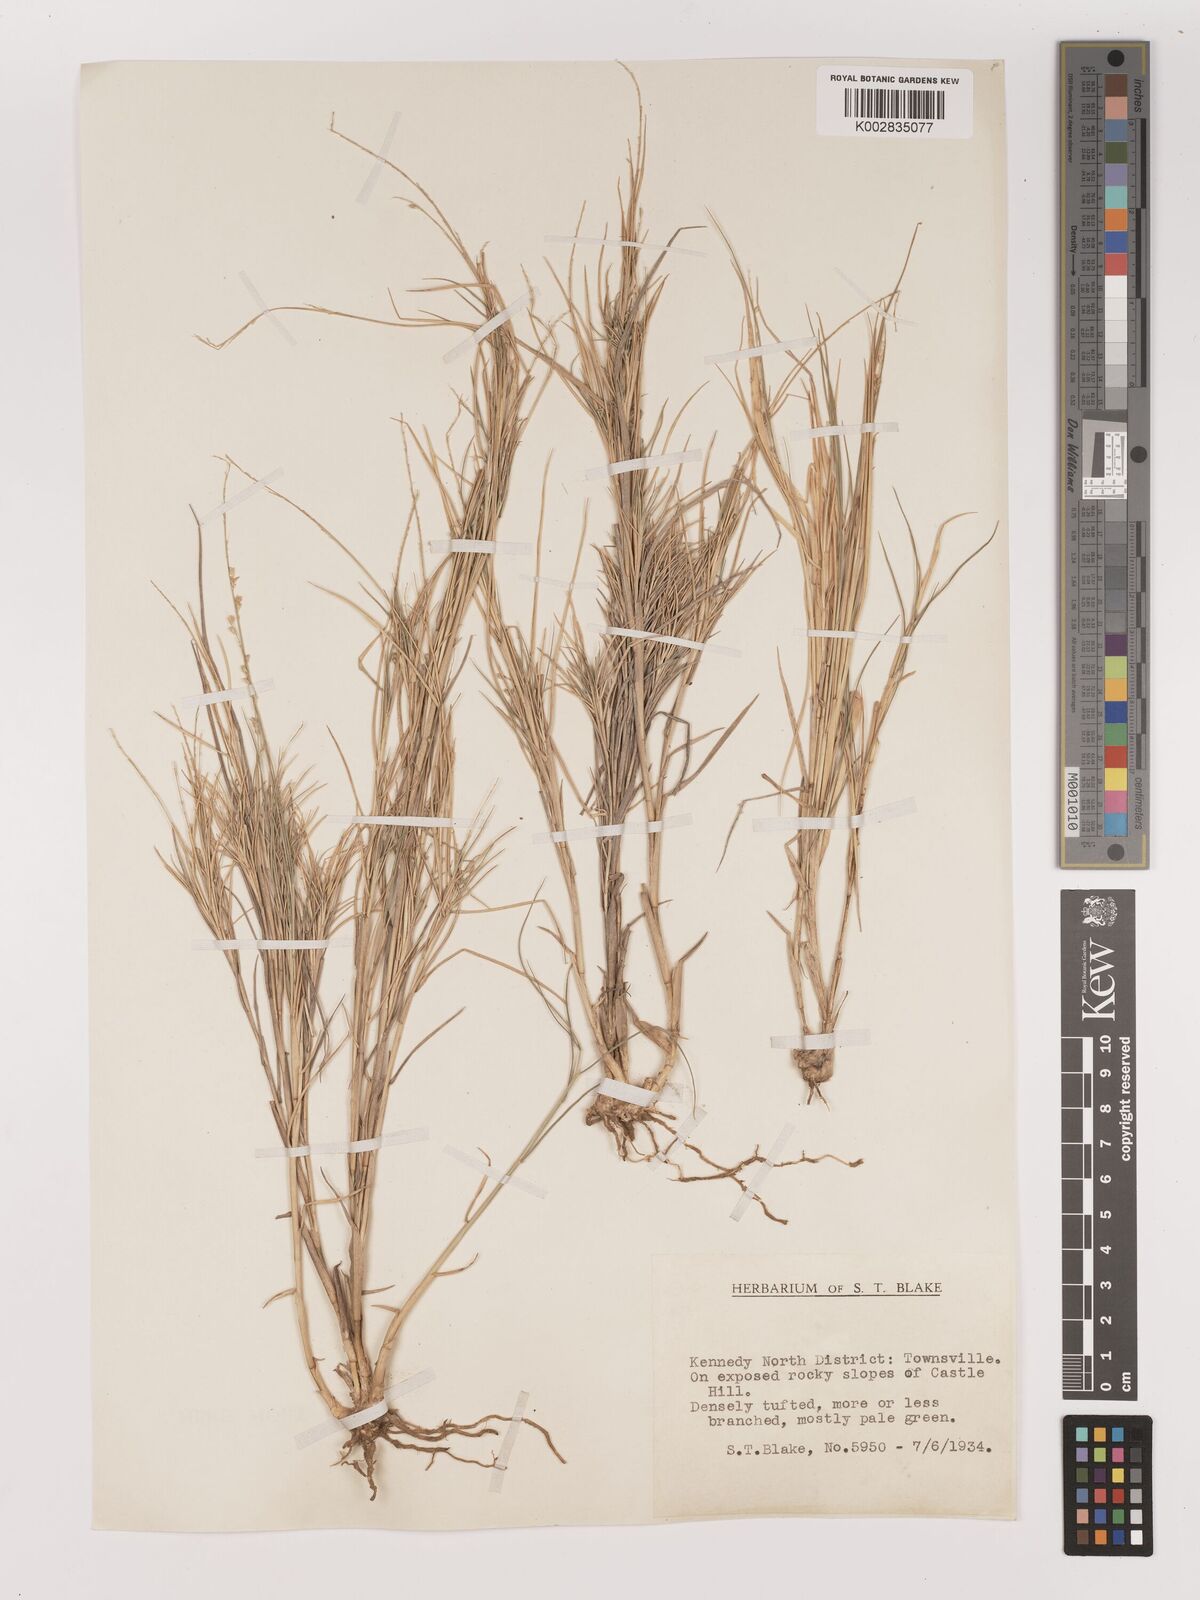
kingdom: Plantae
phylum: Tracheophyta
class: Liliopsida
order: Poales
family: Poaceae
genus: Setaria
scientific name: Setaria
